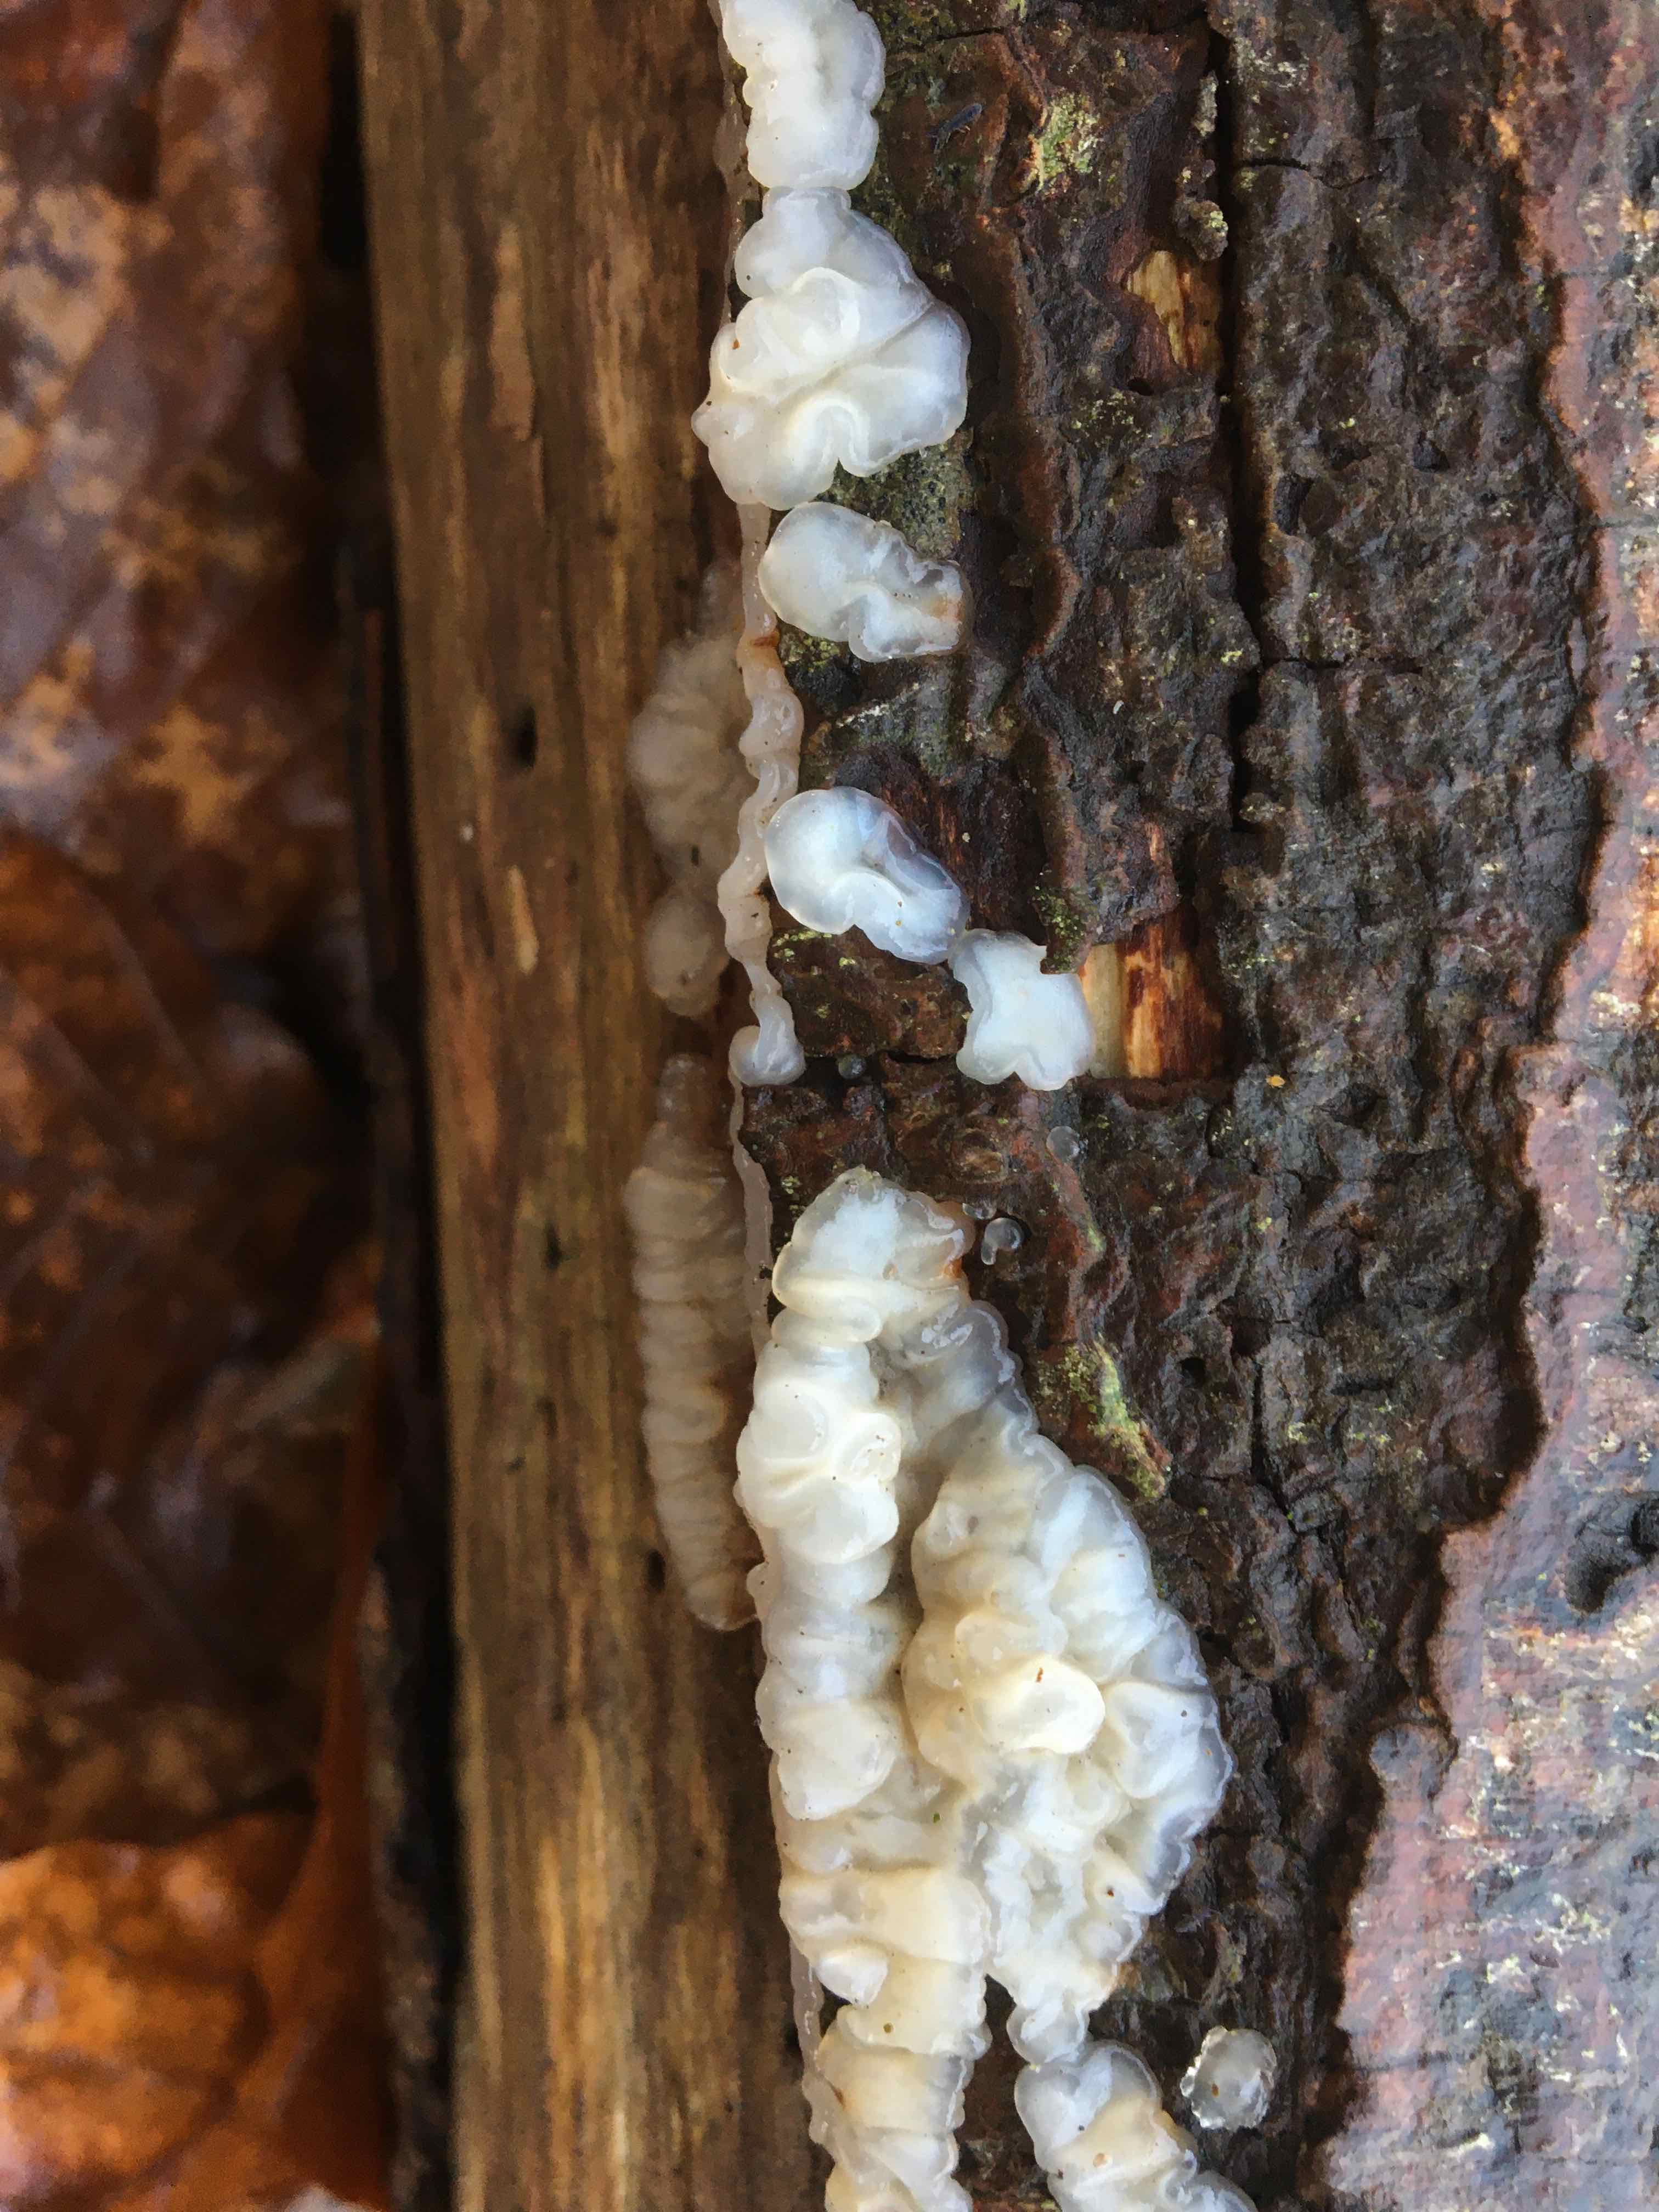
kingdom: Fungi
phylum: Basidiomycota
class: Agaricomycetes
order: Auriculariales
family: Auriculariaceae
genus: Exidia
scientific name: Exidia thuretiana
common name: hvidlig bævretop
